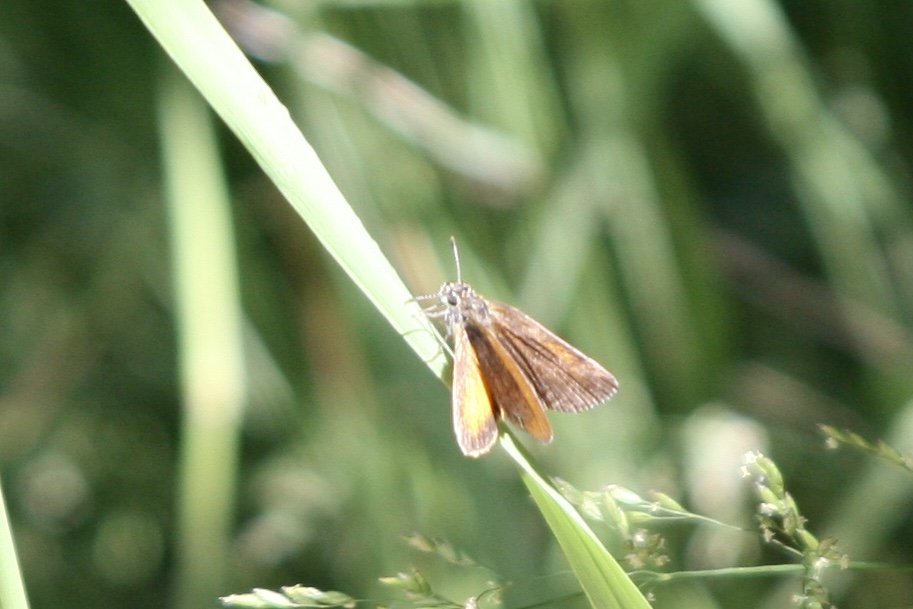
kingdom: Animalia
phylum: Arthropoda
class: Insecta
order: Lepidoptera
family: Hesperiidae
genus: Lon
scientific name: Lon hobomok
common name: Hobomok Skipper
